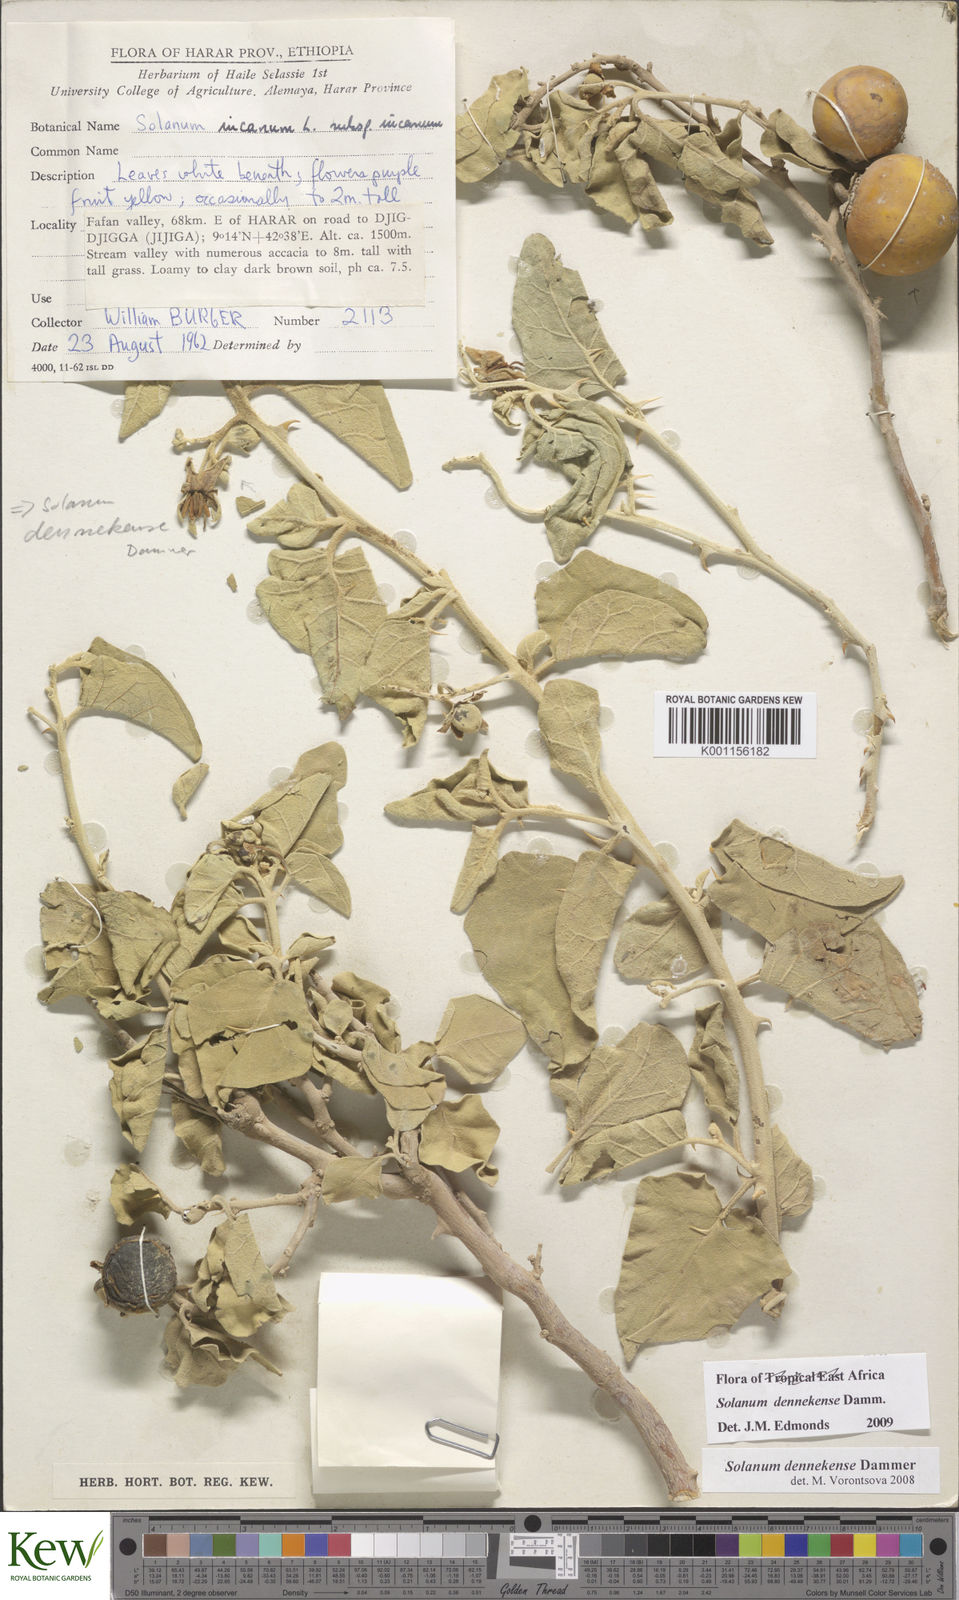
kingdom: Plantae
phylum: Tracheophyta
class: Magnoliopsida
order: Solanales
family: Solanaceae
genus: Solanum
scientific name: Solanum dennekense
